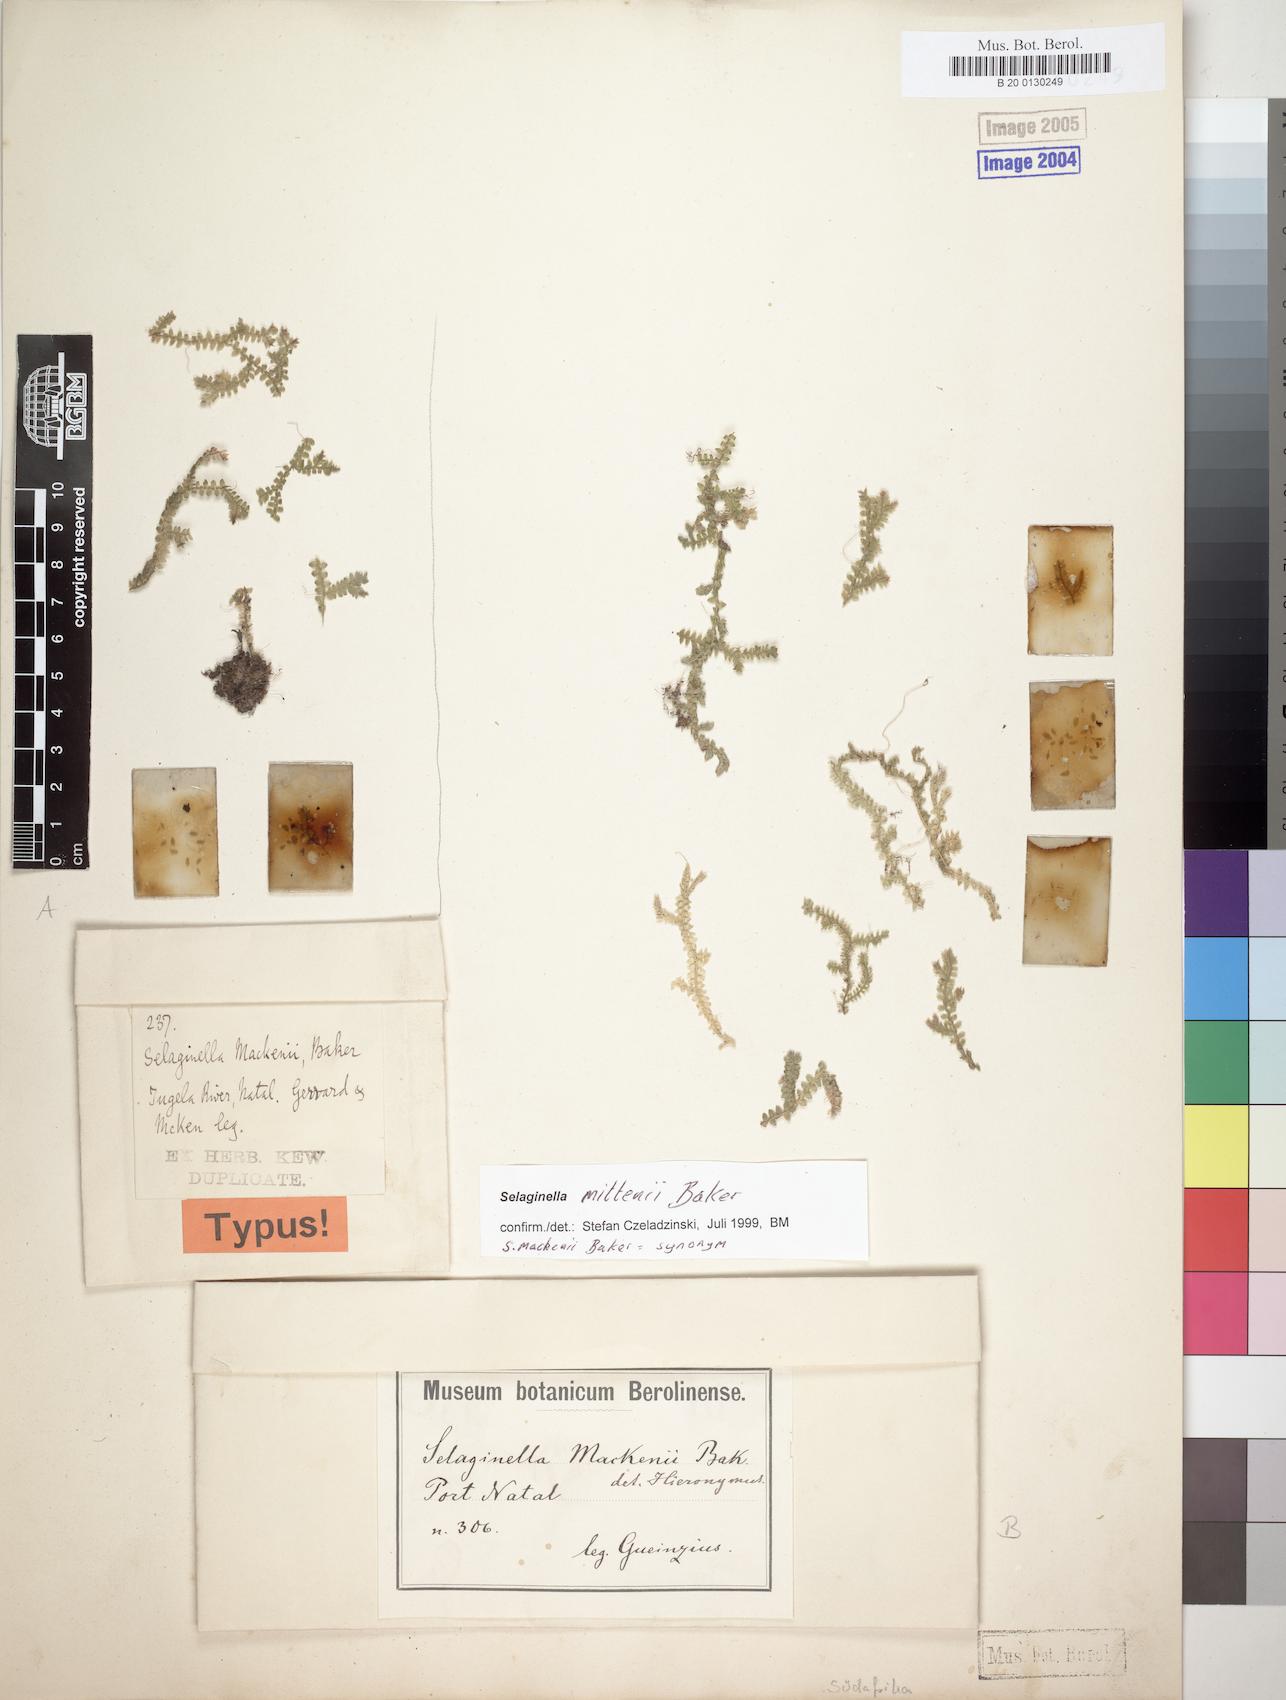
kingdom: Plantae
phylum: Tracheophyta
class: Lycopodiopsida
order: Selaginellales
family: Selaginellaceae
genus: Selaginella
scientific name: Selaginella mittenii
